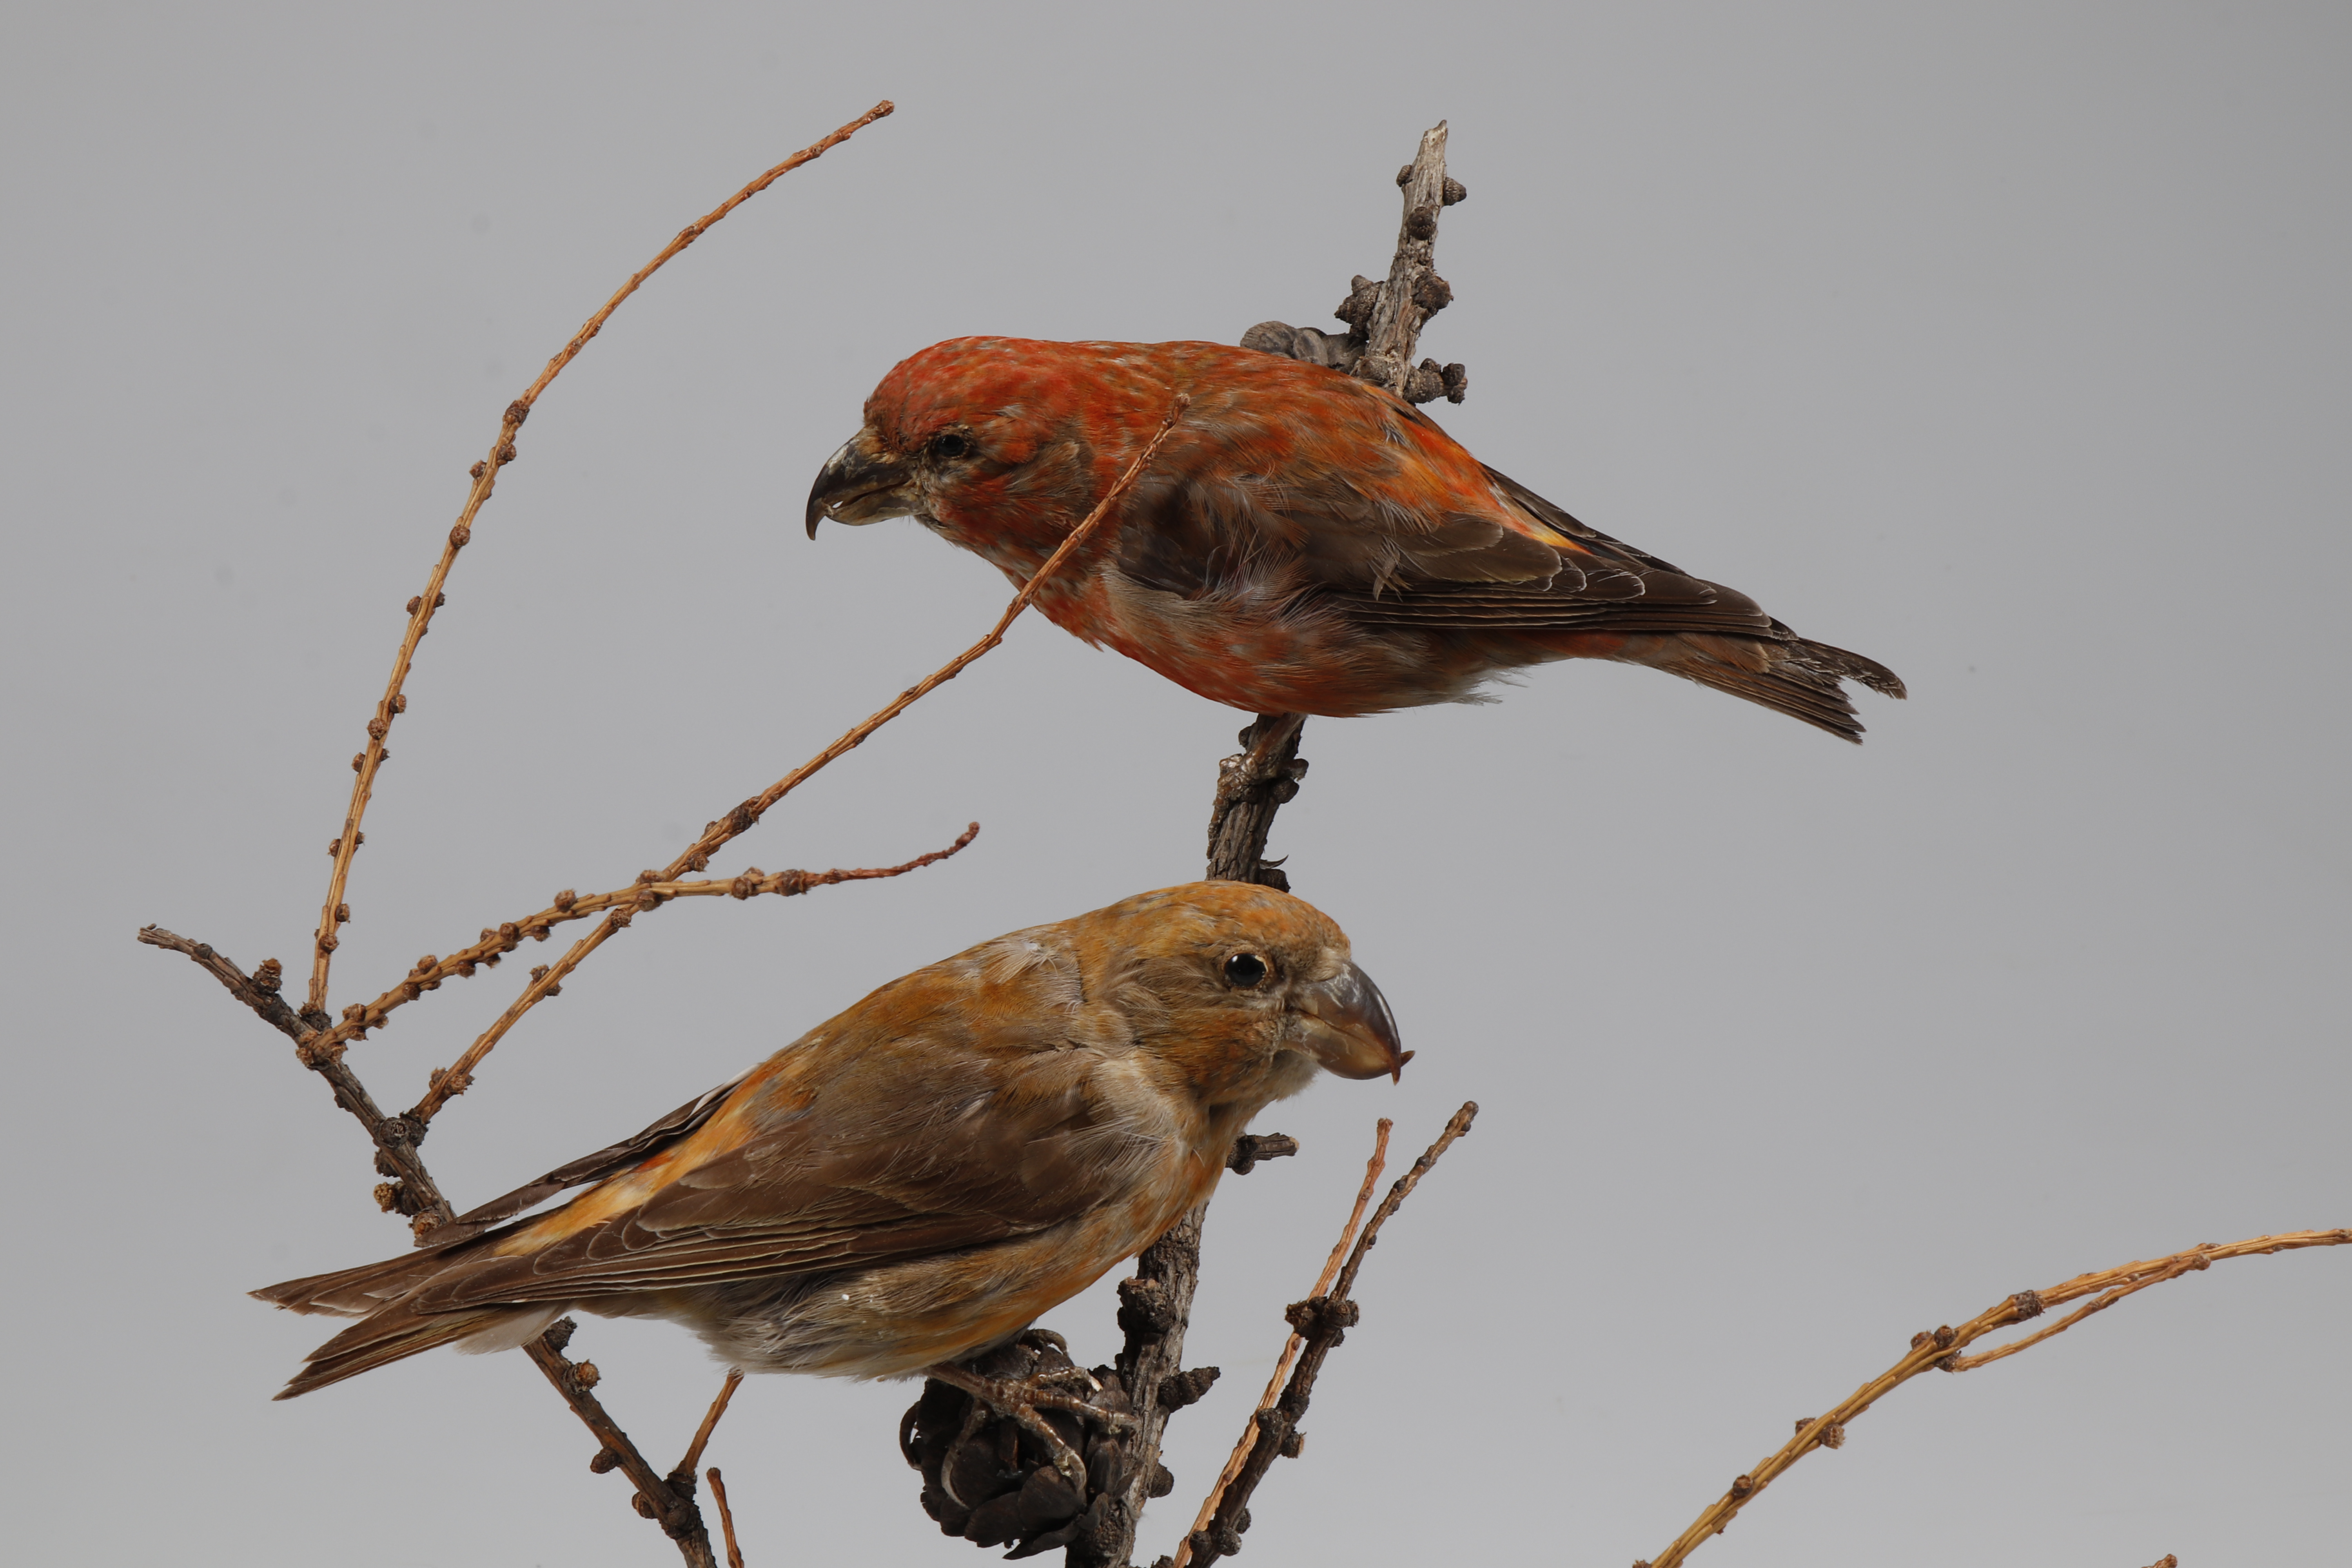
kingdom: Animalia
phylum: Chordata
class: Aves
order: Passeriformes
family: Fringillidae
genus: Loxia
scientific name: Loxia pytyopsittacus
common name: Parrot crossbill
